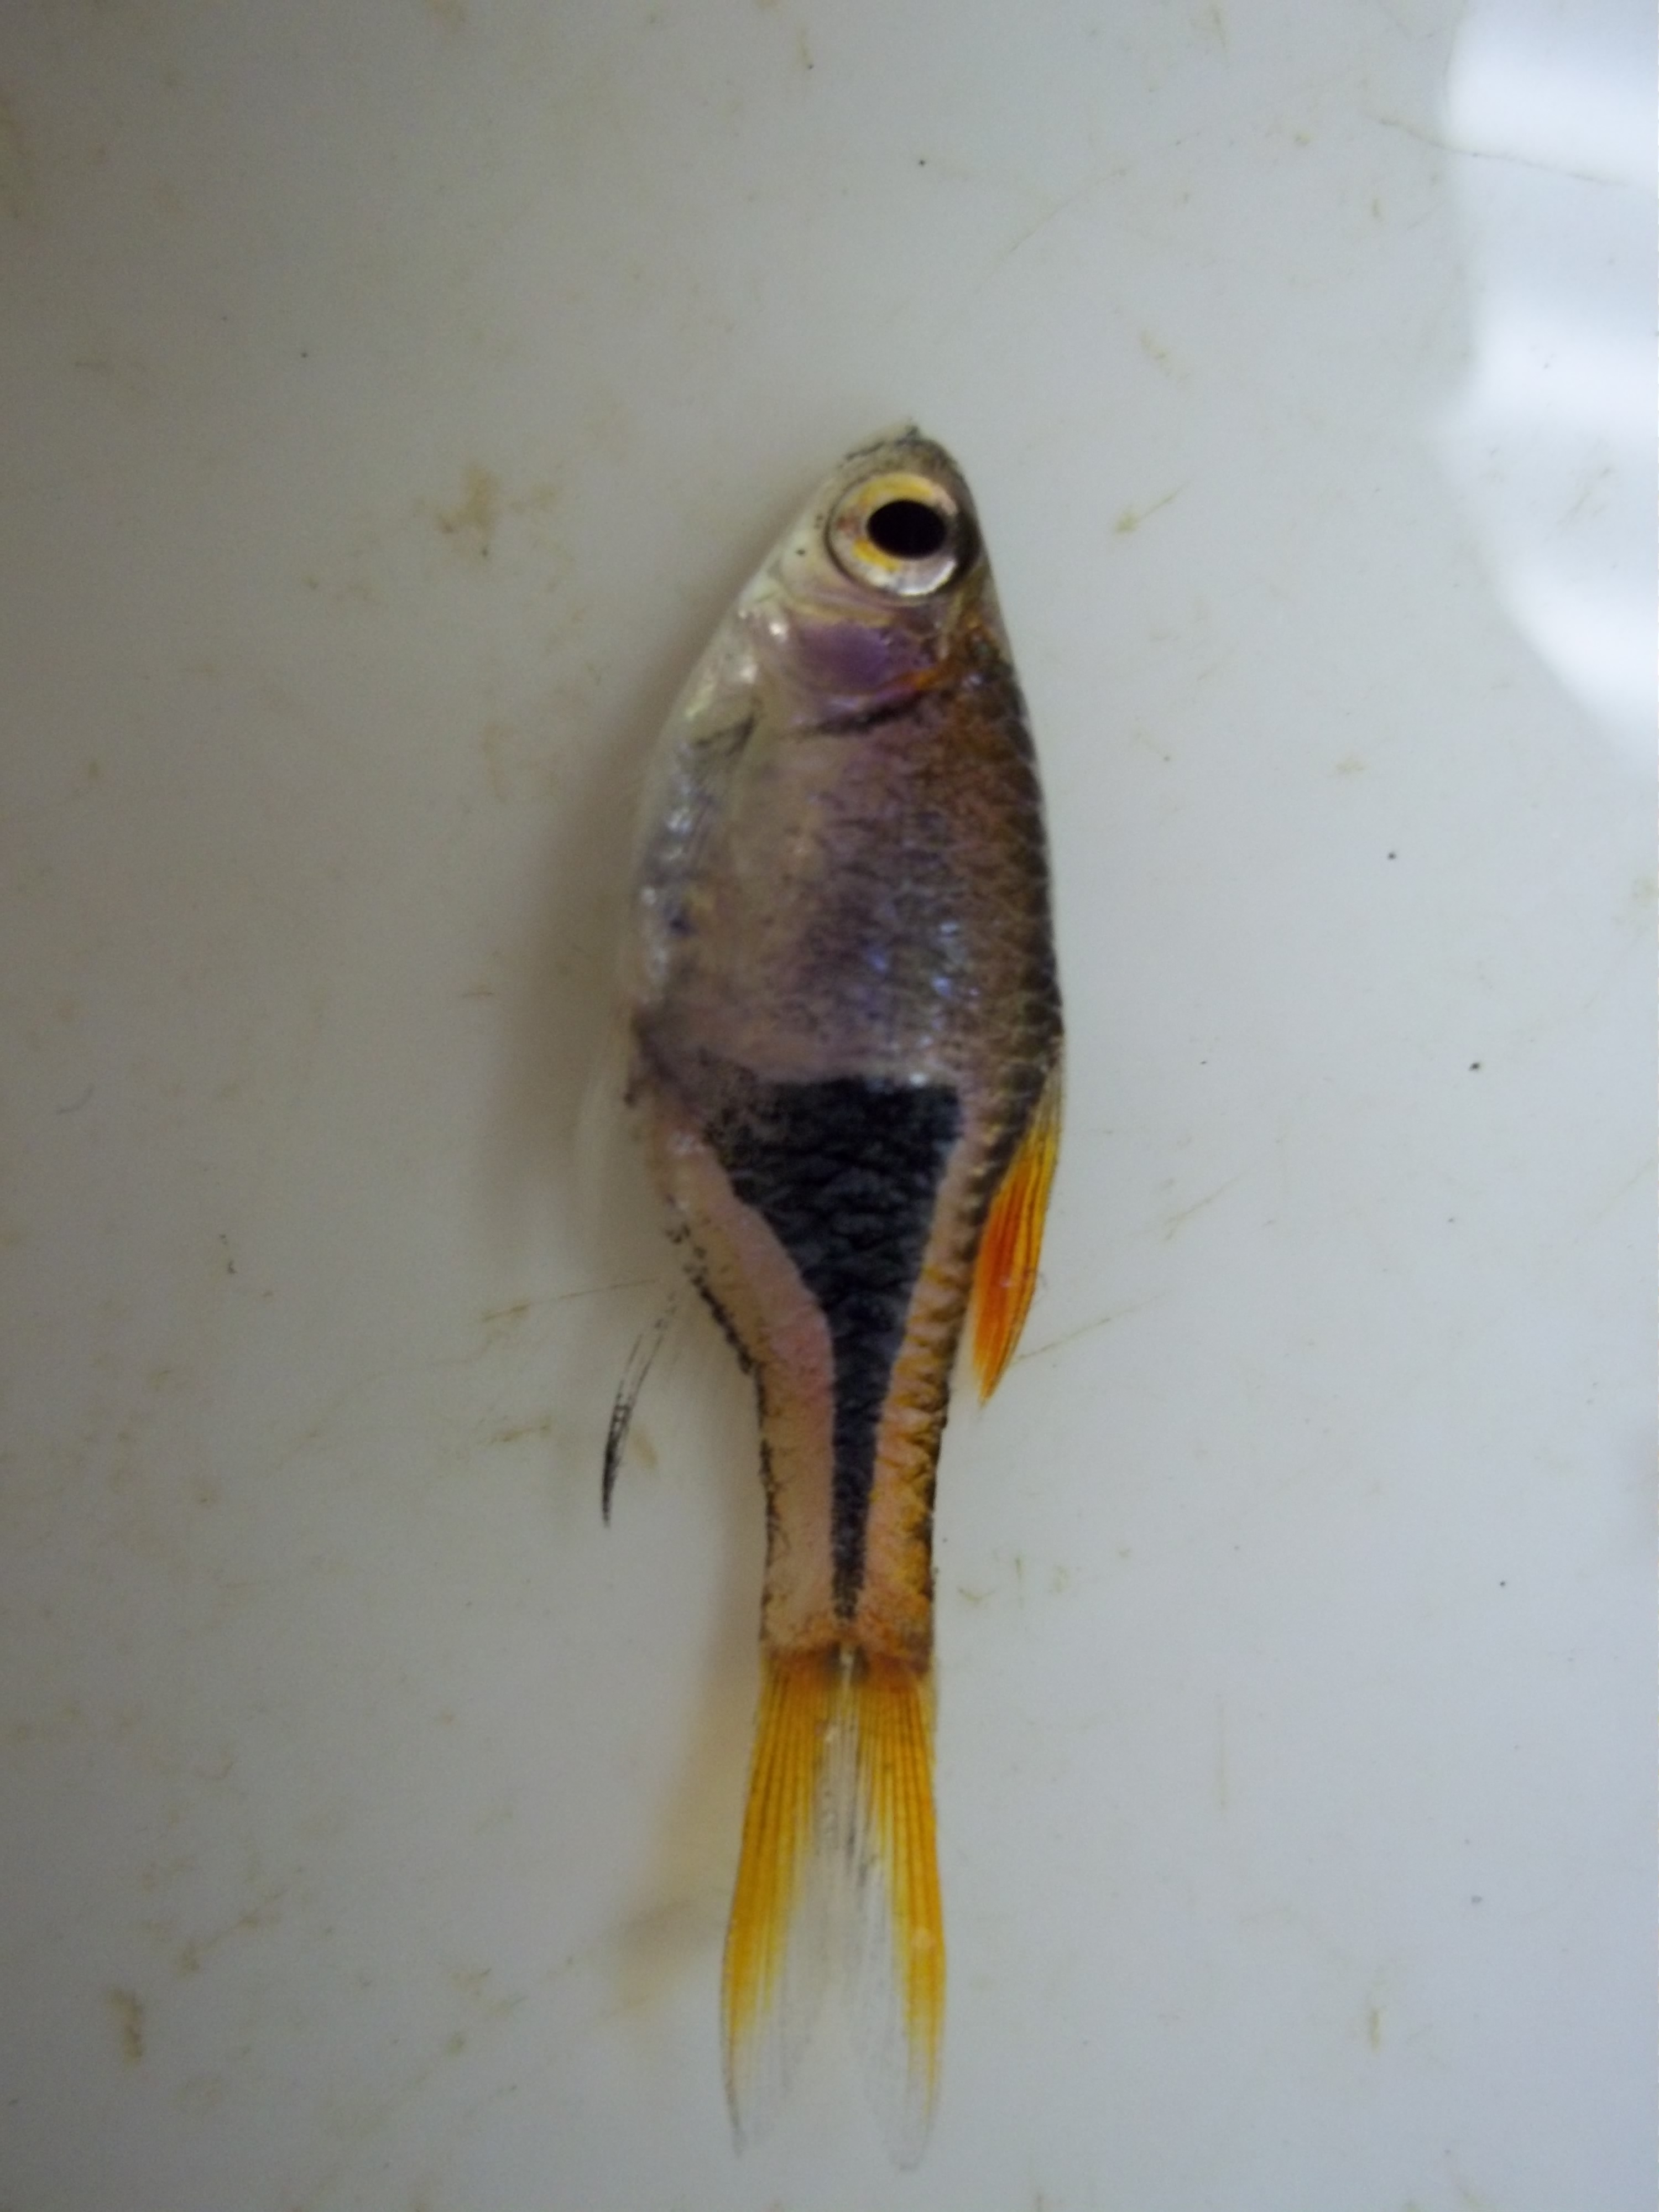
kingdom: Animalia
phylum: Chordata
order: Cypriniformes
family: Cyprinidae
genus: Trigonostigma
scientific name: Trigonostigma heteromorpha
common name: Harlequin rasbora
